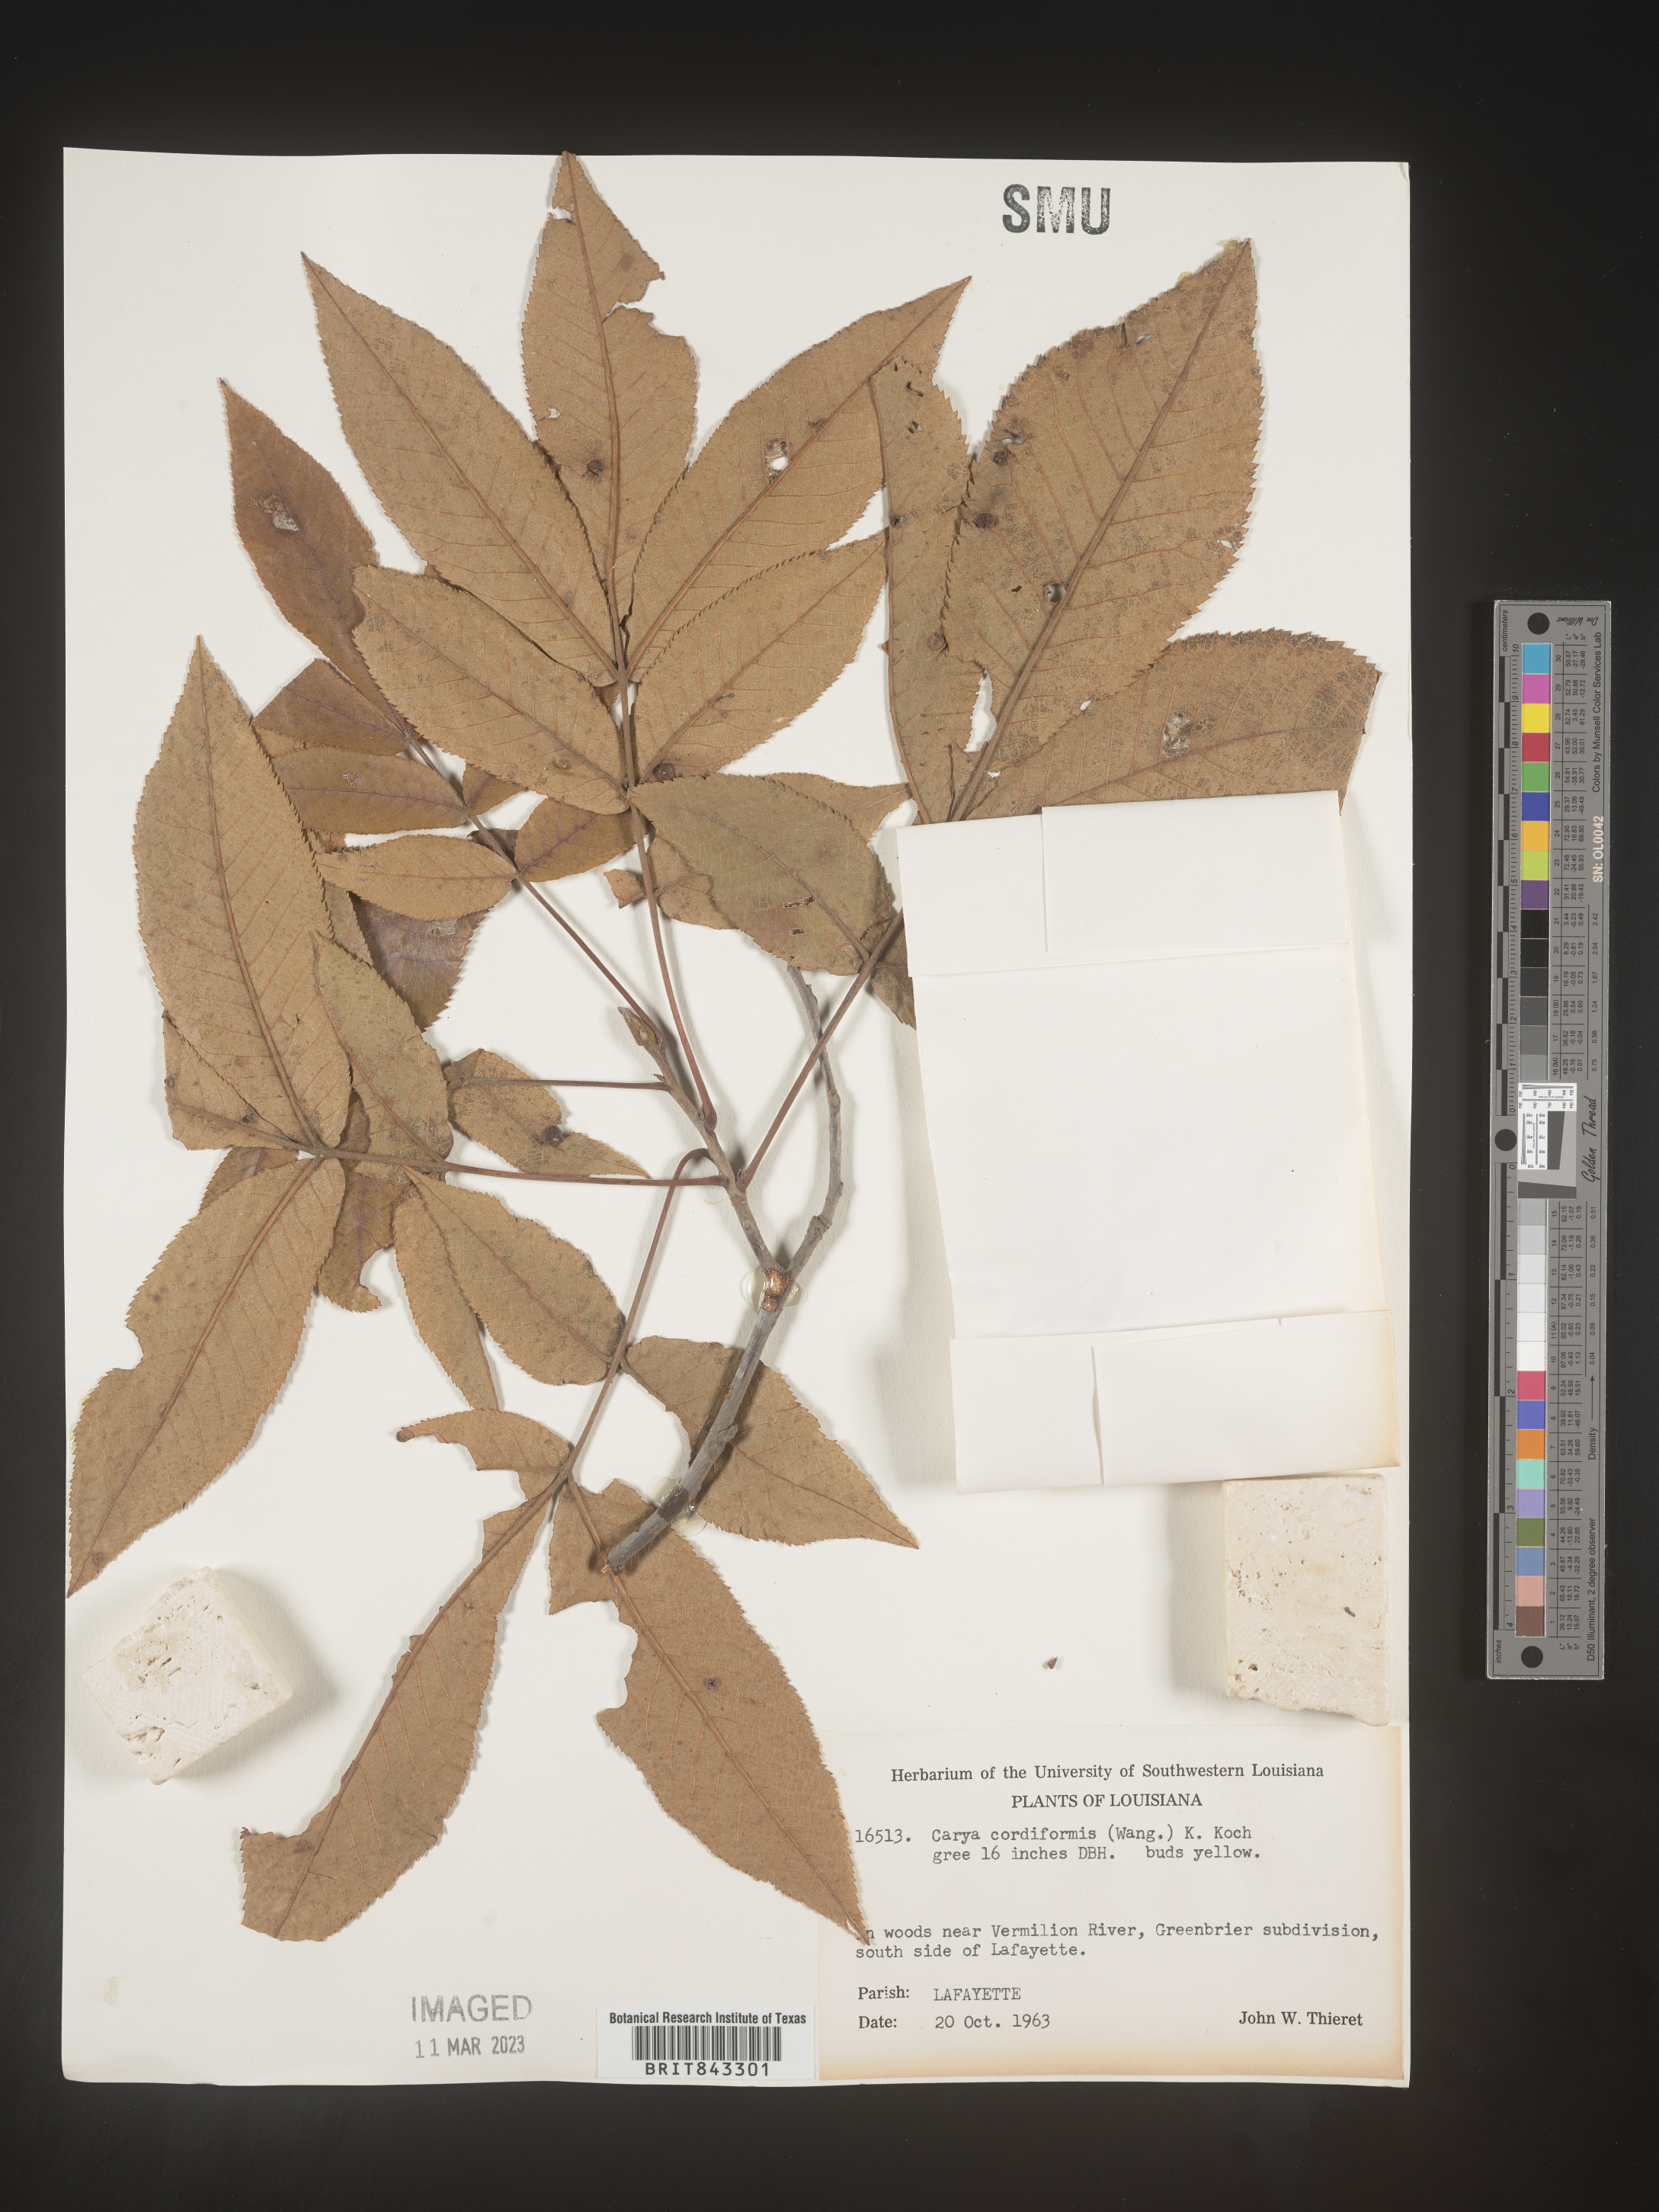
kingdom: Plantae
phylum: Tracheophyta
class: Magnoliopsida
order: Fagales
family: Juglandaceae
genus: Carya
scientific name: Carya cordiformis
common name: Bitternut hickory
